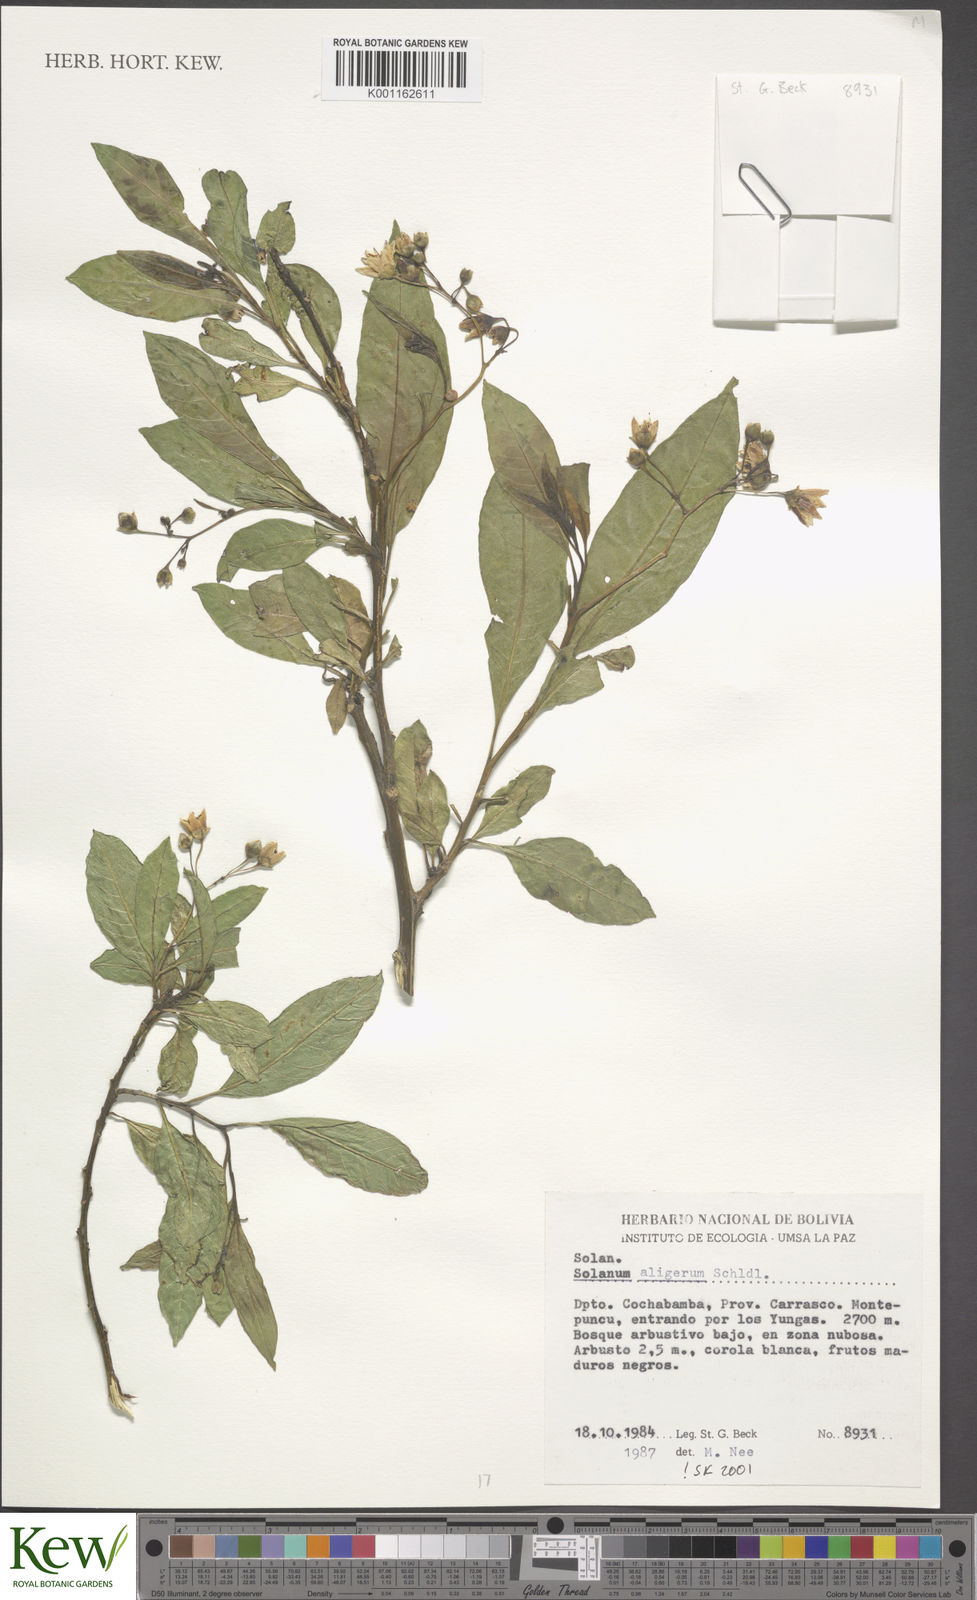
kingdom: Plantae
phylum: Tracheophyta
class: Magnoliopsida
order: Solanales
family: Solanaceae
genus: Solanum
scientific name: Solanum aligerum
